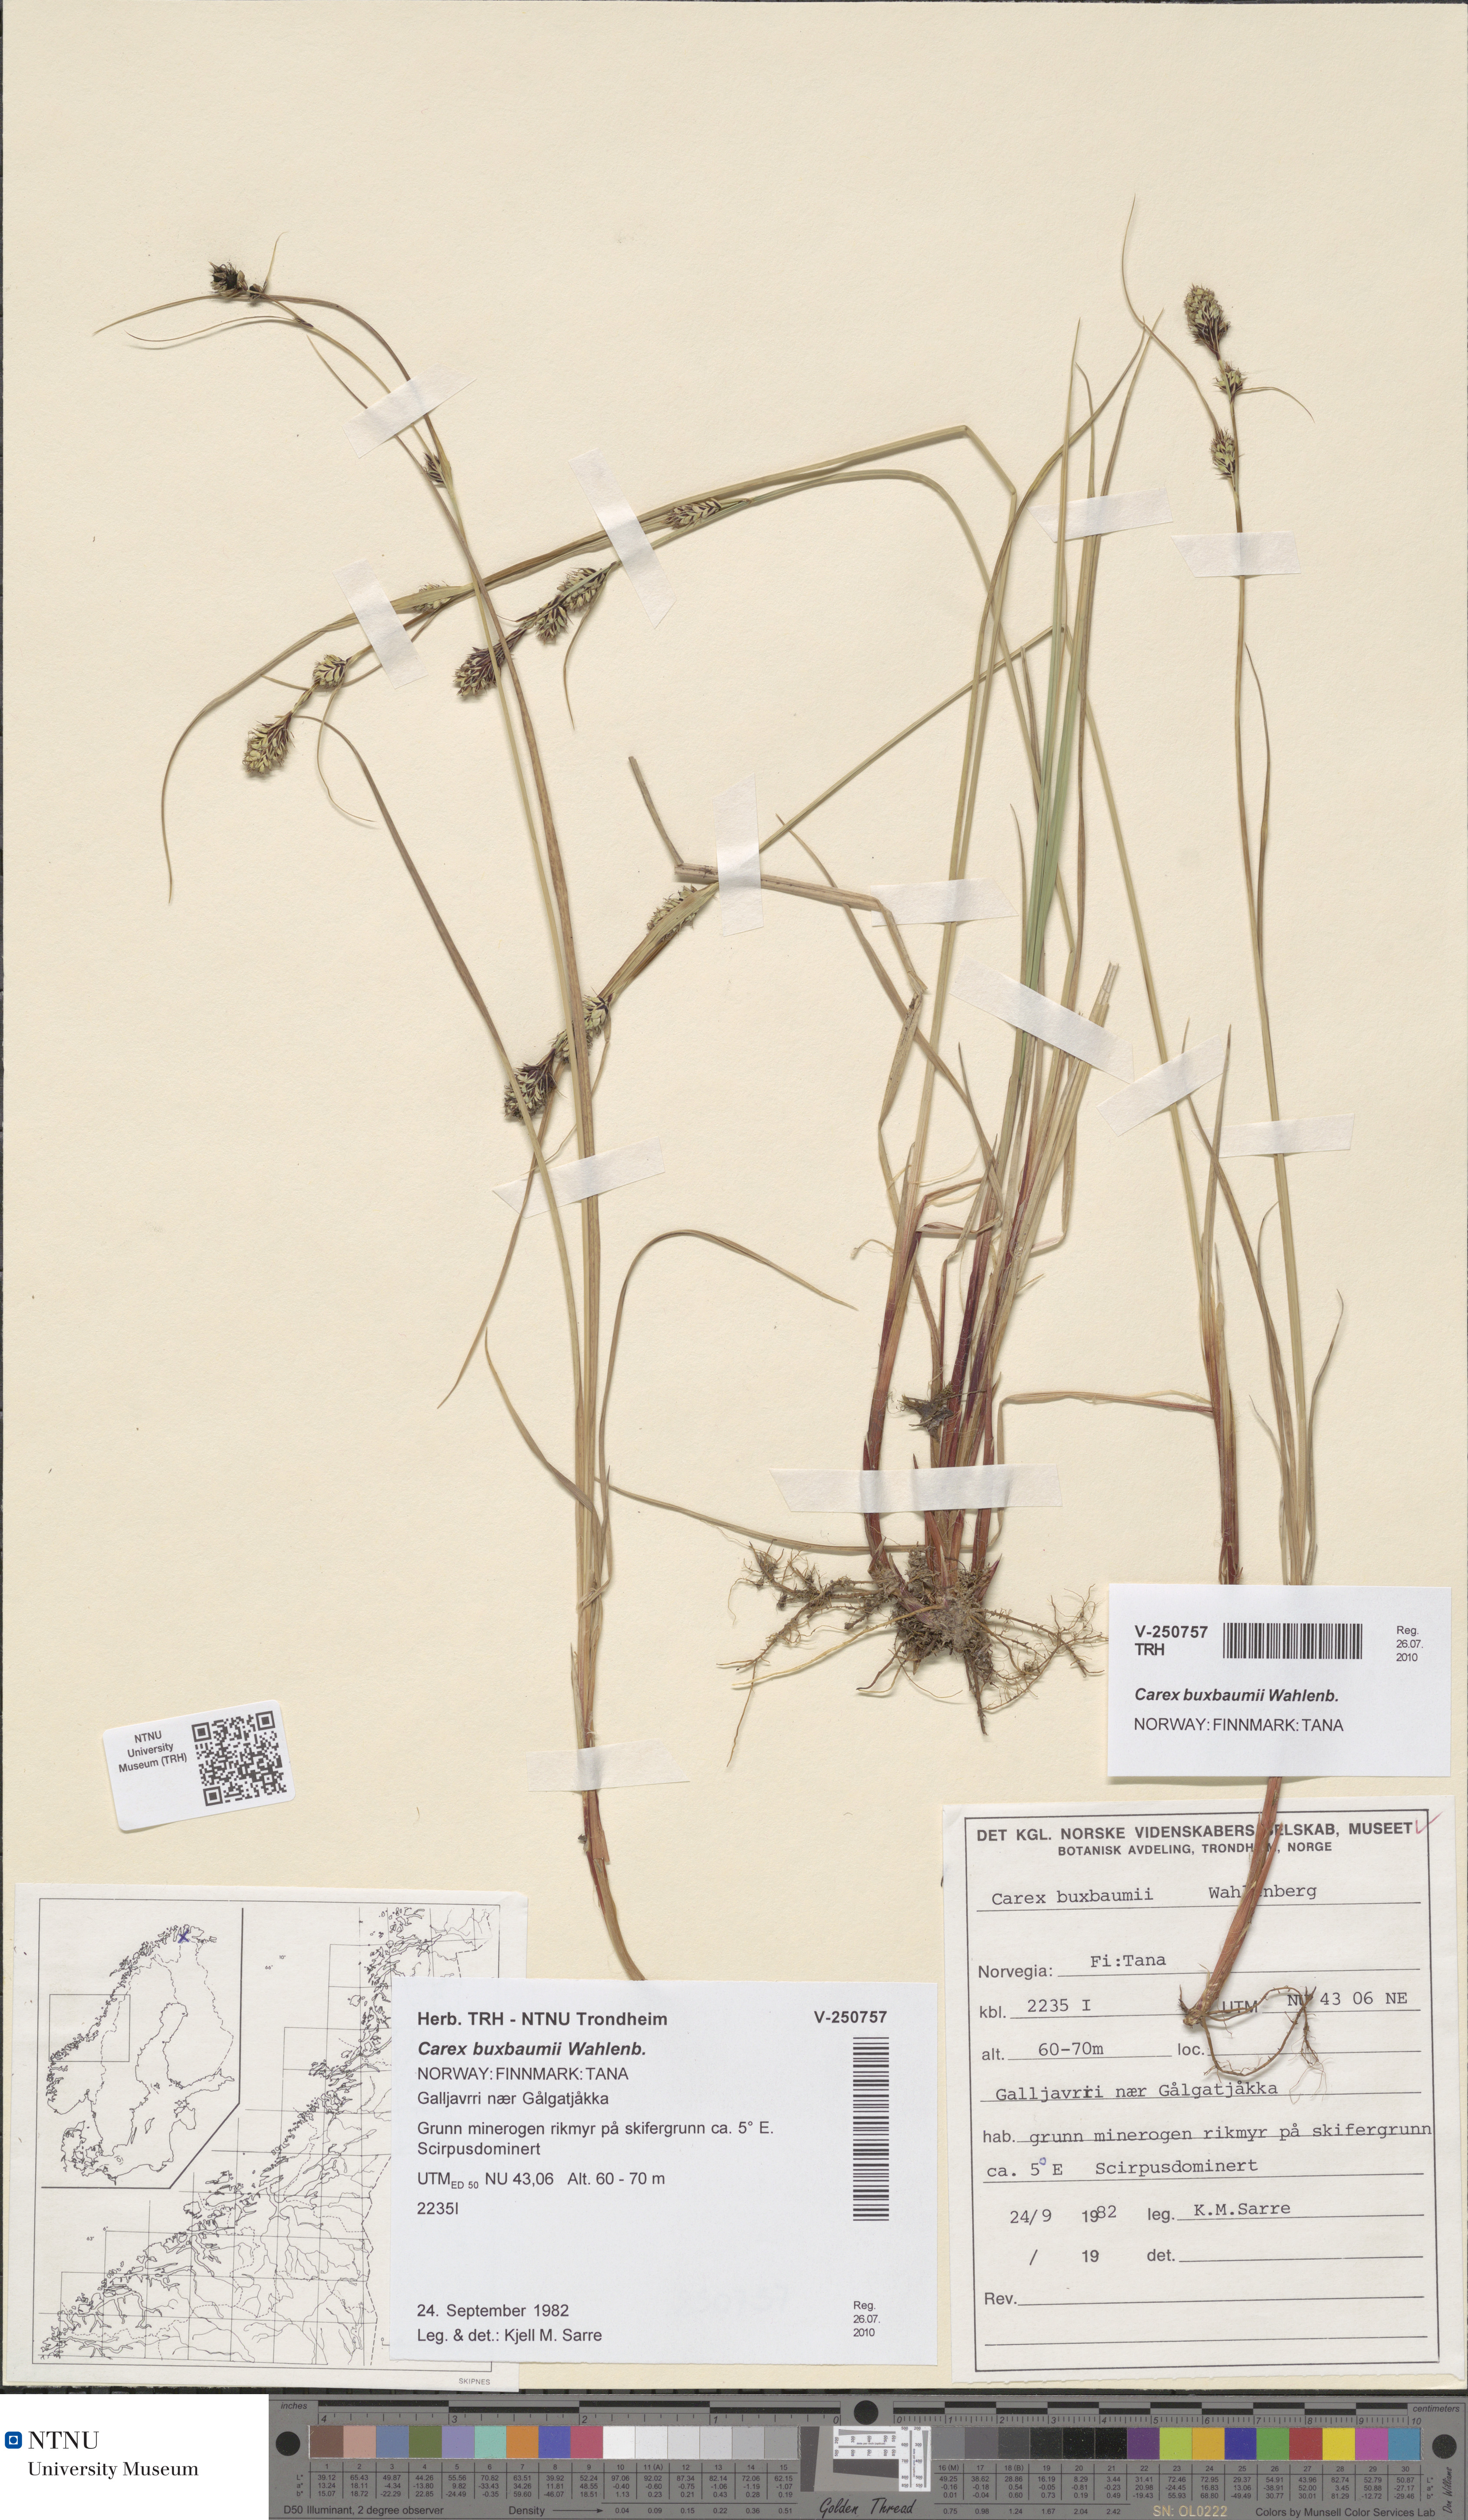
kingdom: Plantae
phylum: Tracheophyta
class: Liliopsida
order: Poales
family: Cyperaceae
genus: Carex
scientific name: Carex buxbaumii
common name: Club sedge
